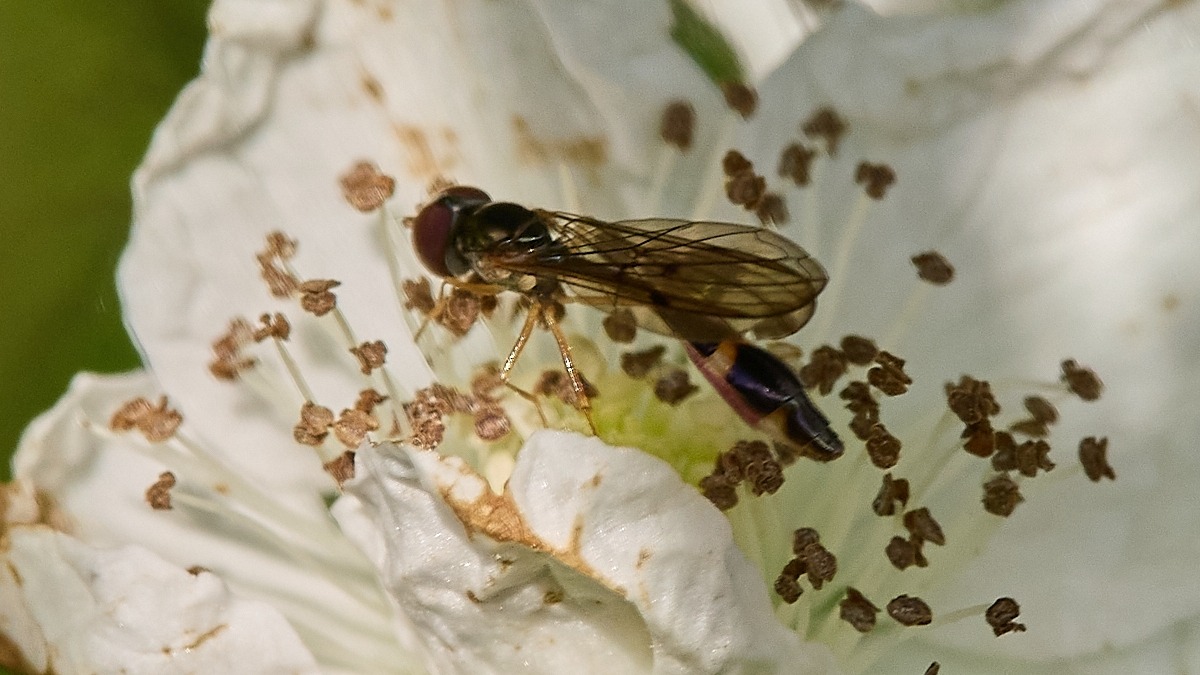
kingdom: Animalia
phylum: Arthropoda
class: Insecta
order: Diptera
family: Syrphidae
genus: Baccha
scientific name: Baccha elongata
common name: Mat spydsvirreflue
